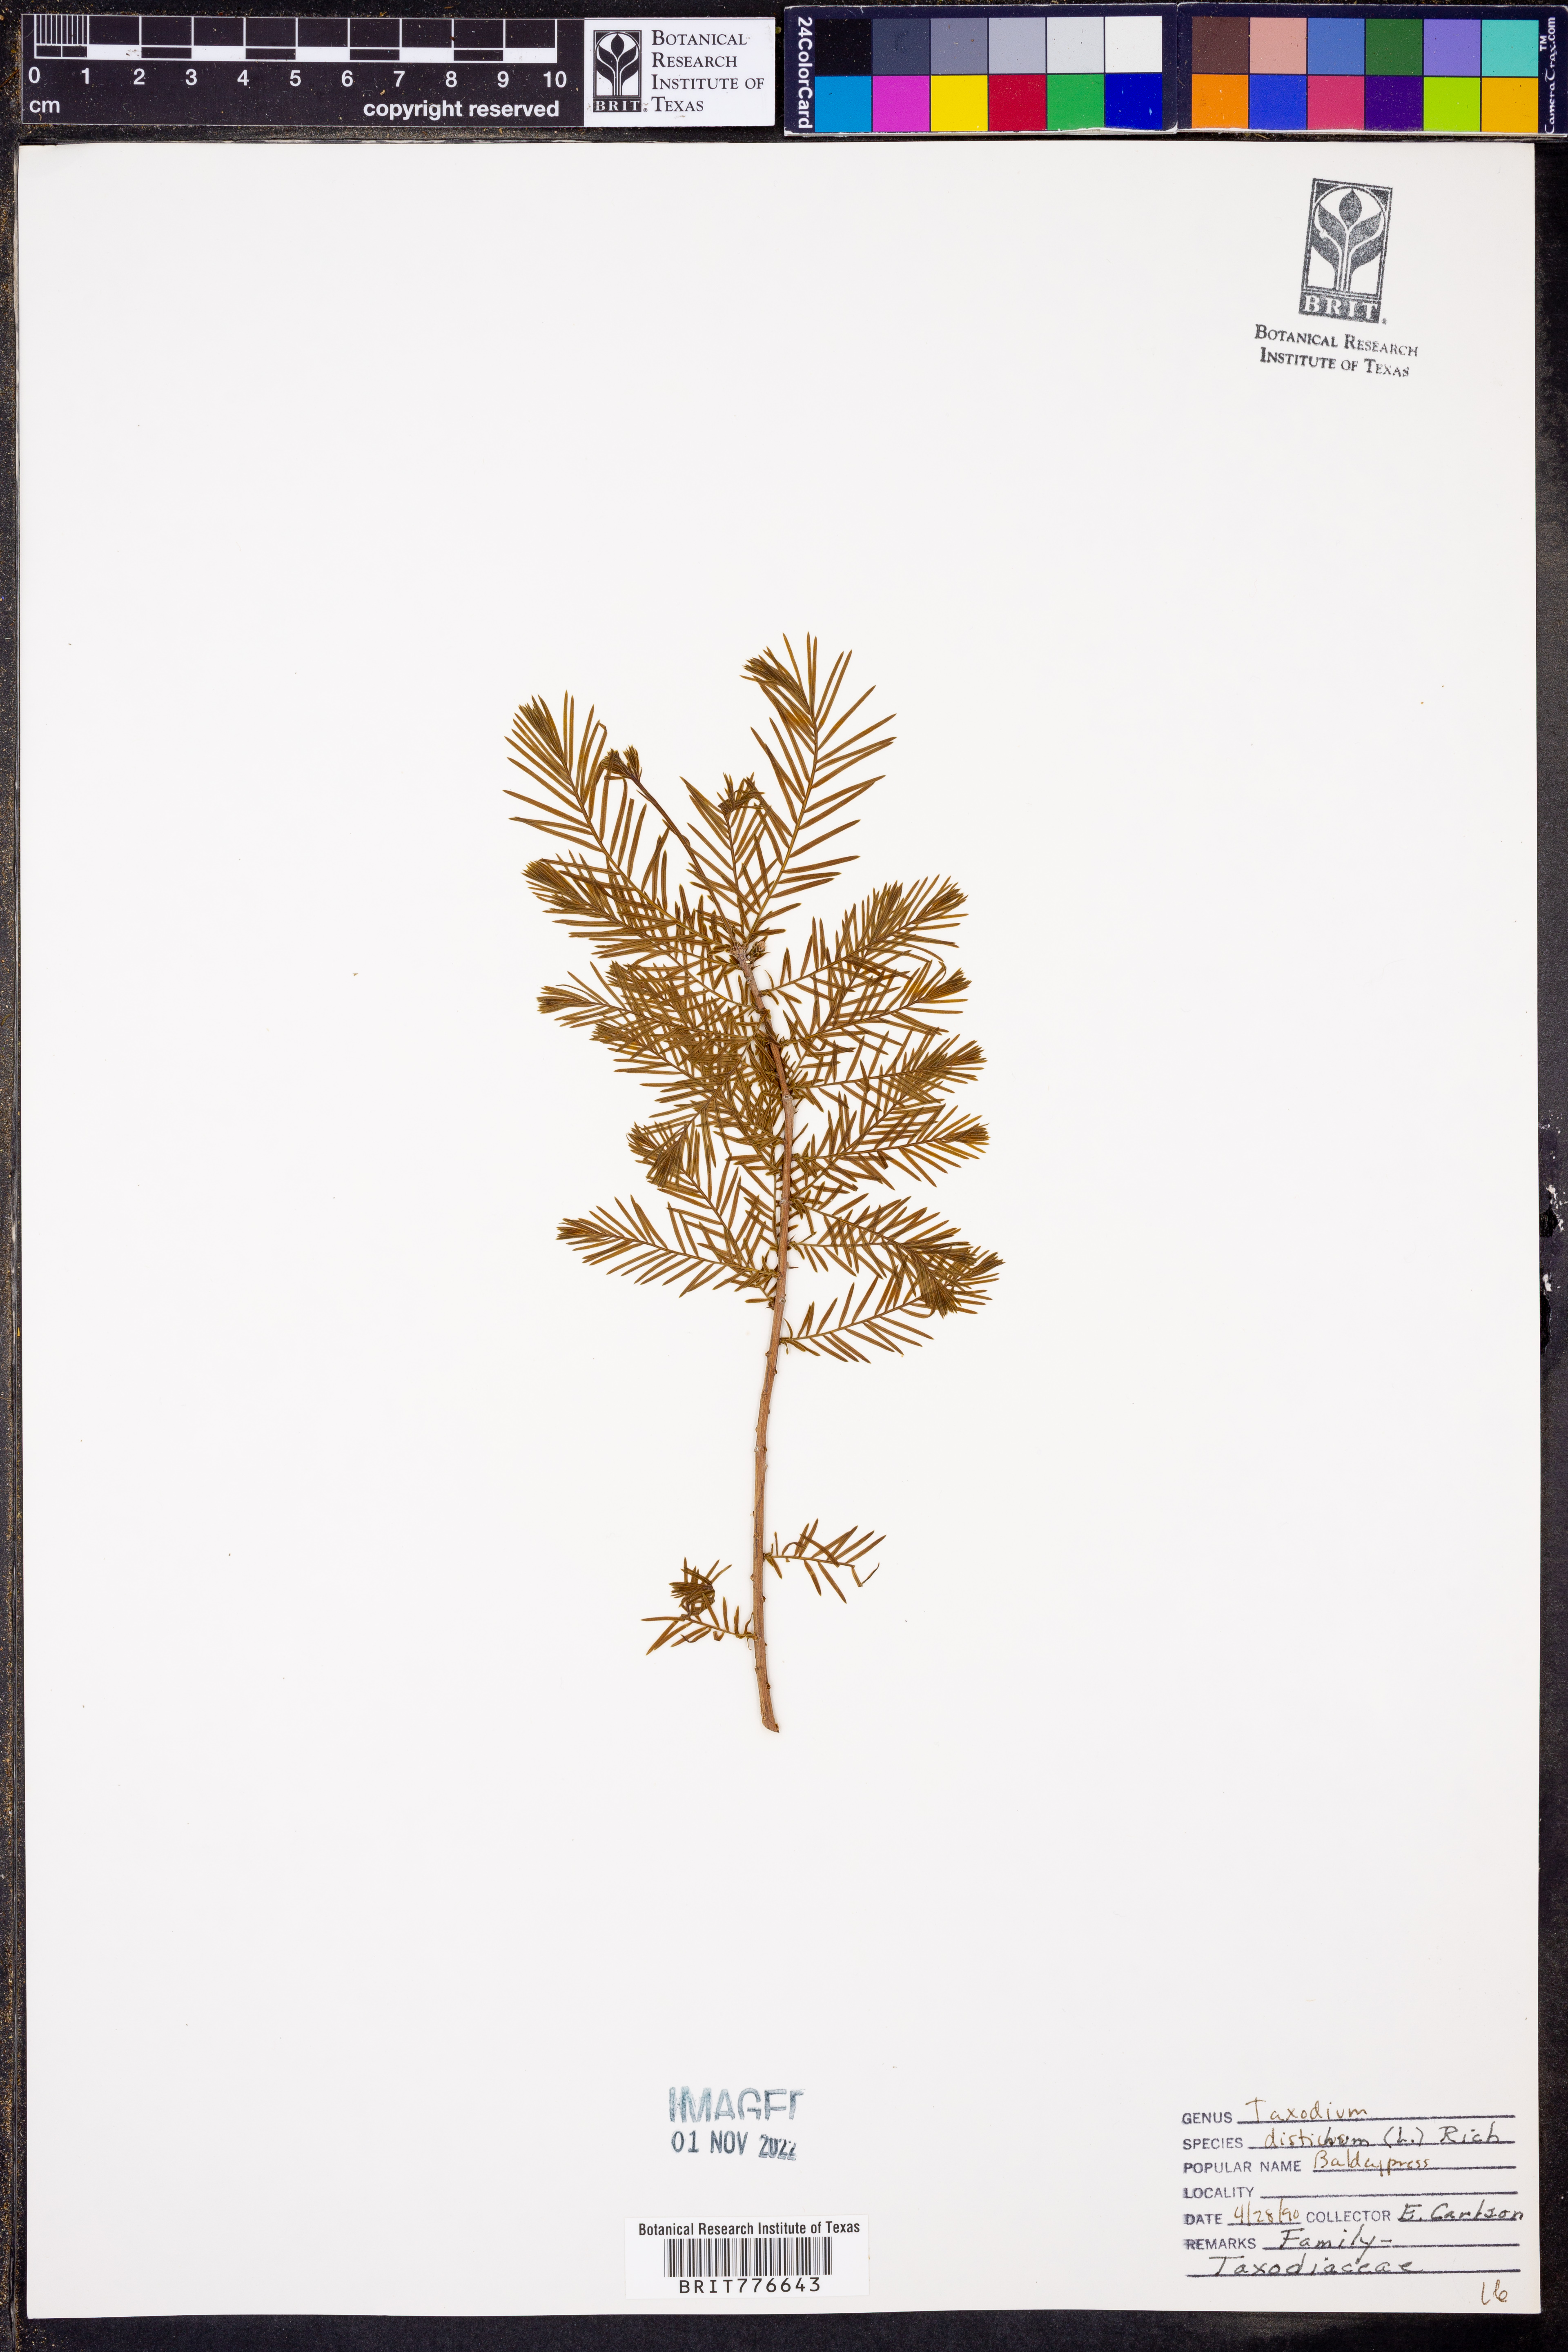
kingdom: Plantae
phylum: Tracheophyta
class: Pinopsida
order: Pinales
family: Cupressaceae
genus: Taxodium
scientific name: Taxodium distichum
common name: Bald cypress
